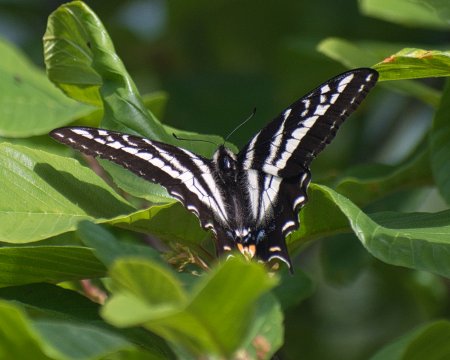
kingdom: Animalia
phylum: Arthropoda
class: Insecta
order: Lepidoptera
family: Papilionidae
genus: Pterourus
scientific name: Pterourus eurymedon
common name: Pale Swallowtail
